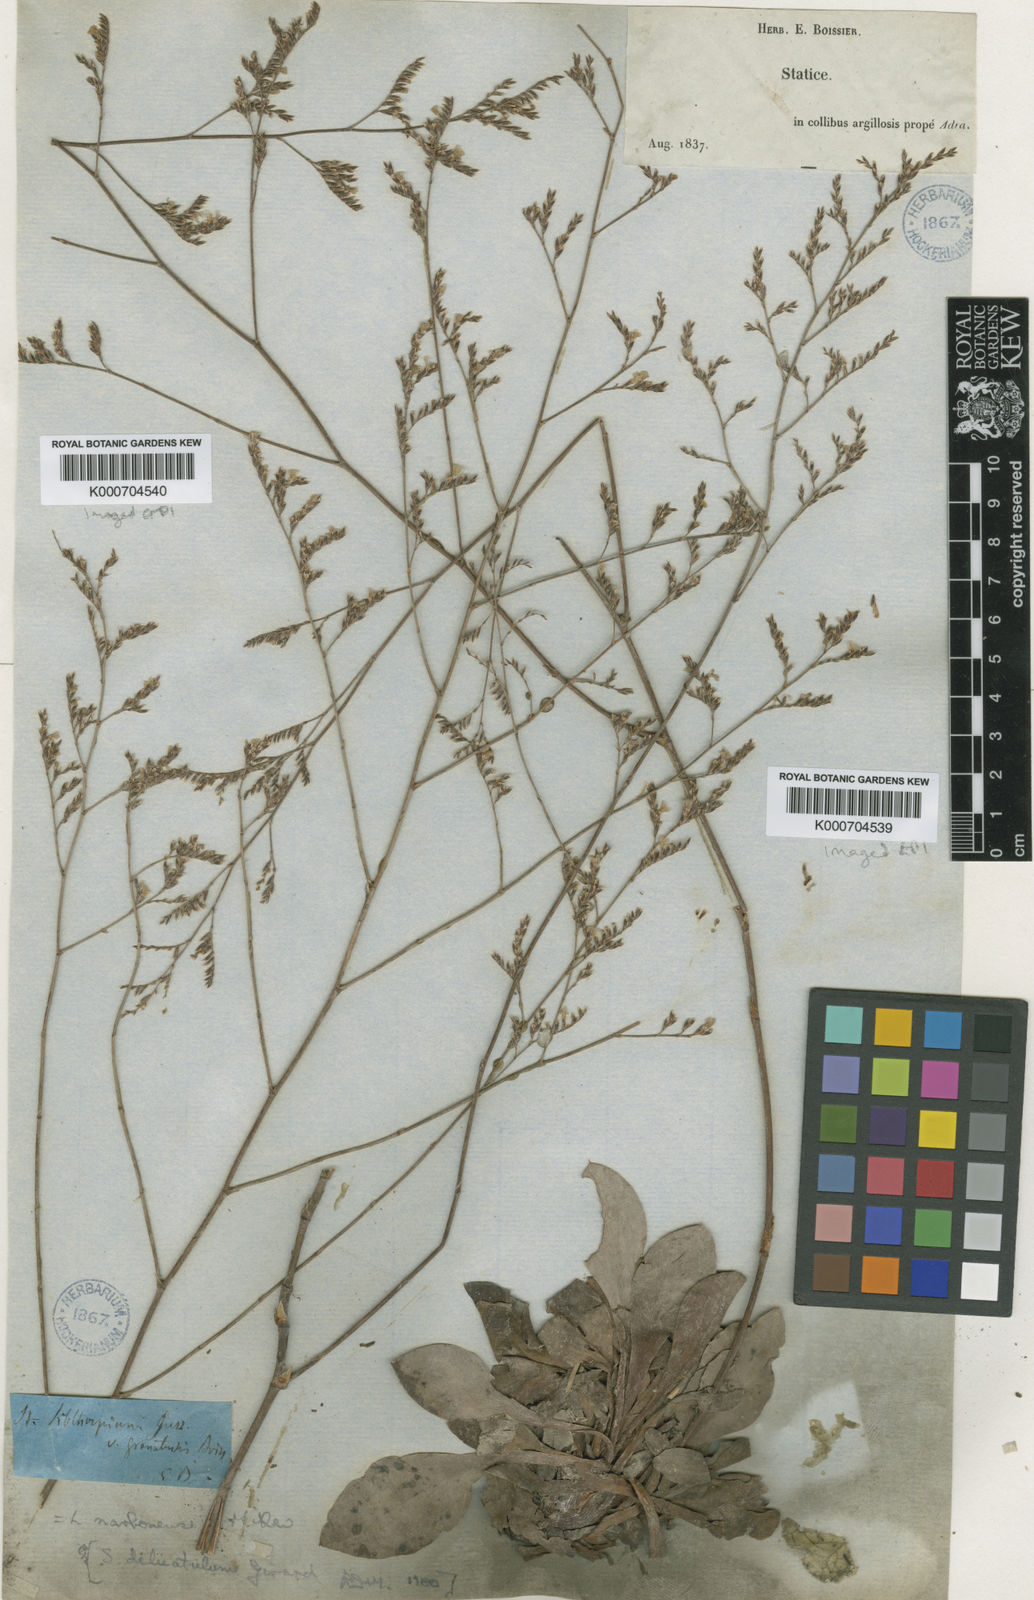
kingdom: Plantae
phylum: Tracheophyta
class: Magnoliopsida
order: Caryophyllales
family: Plumbaginaceae
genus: Limonium
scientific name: Limonium delicatulum
